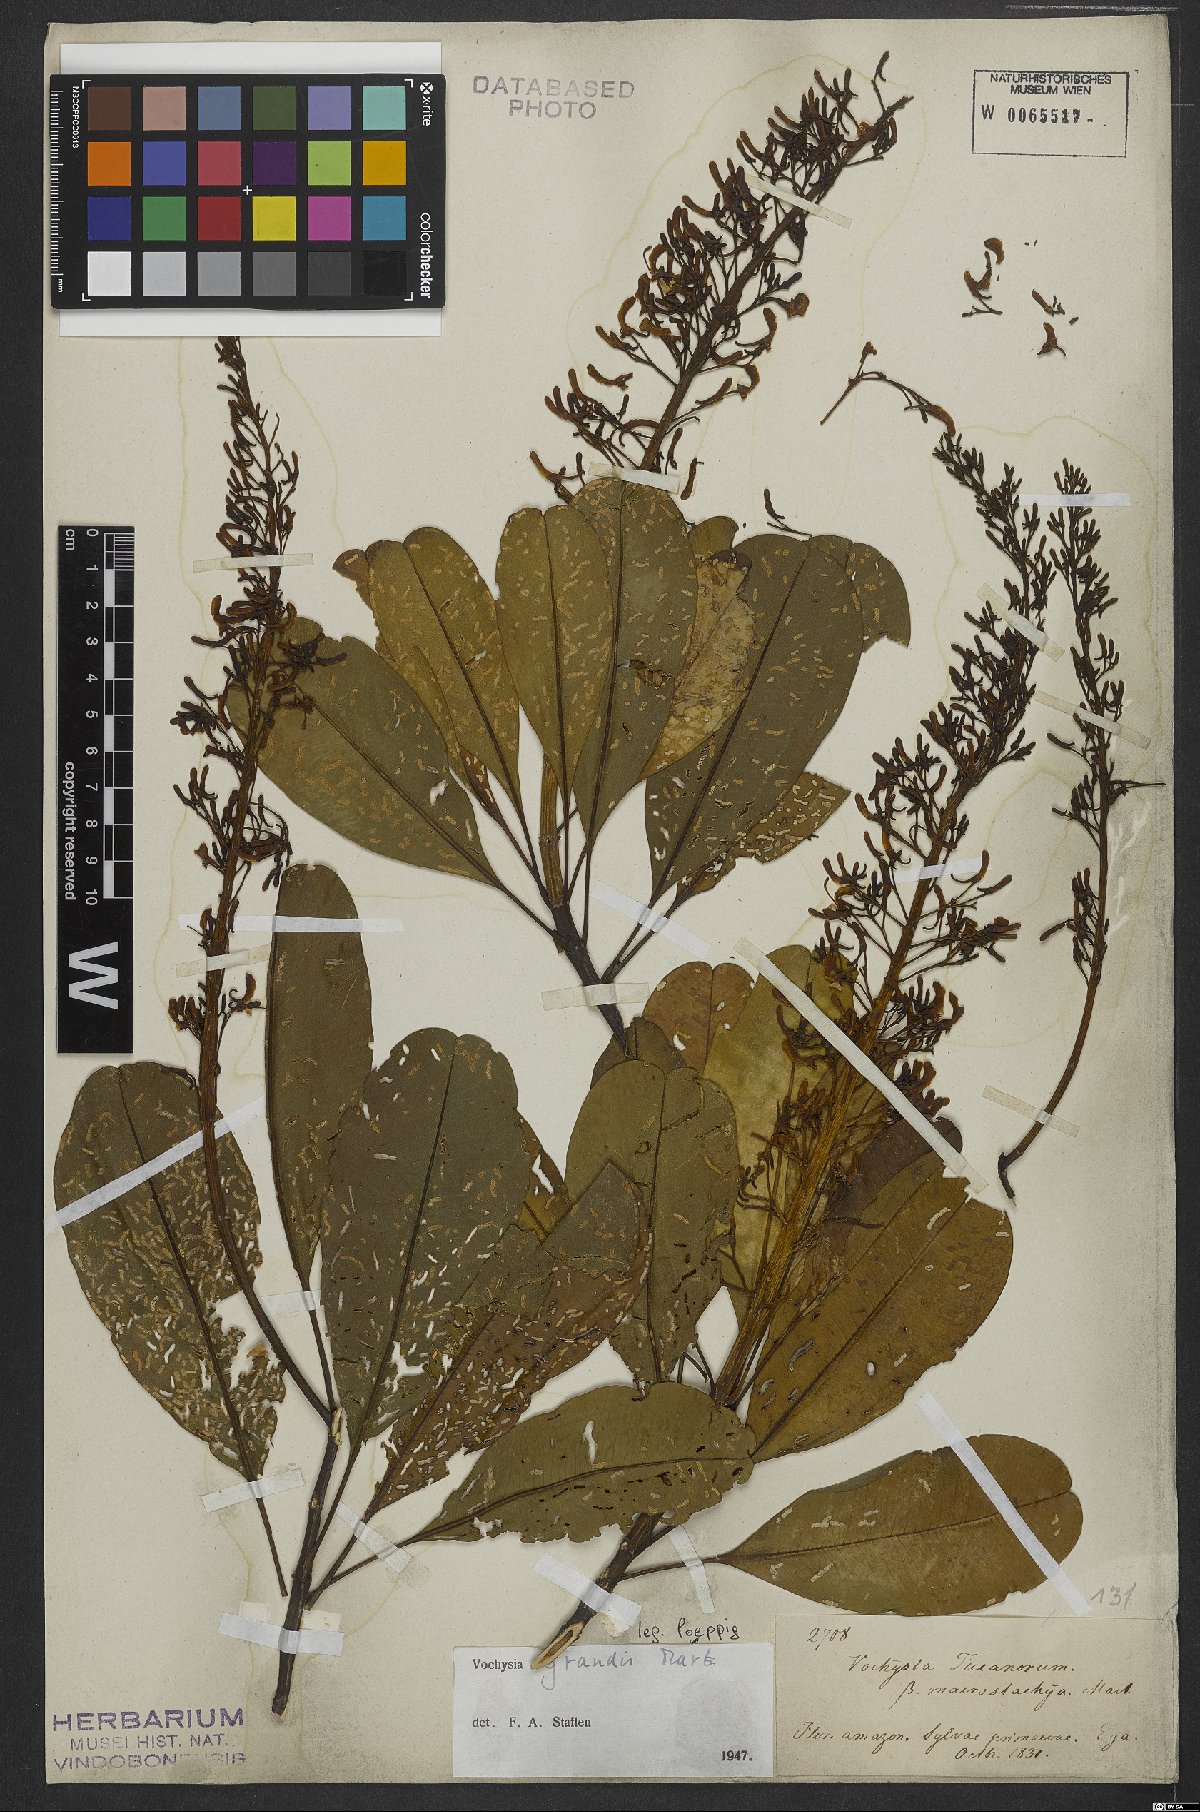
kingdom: Plantae
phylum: Tracheophyta
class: Magnoliopsida
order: Myrtales
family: Vochysiaceae
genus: Vochysia
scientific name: Vochysia grandis
